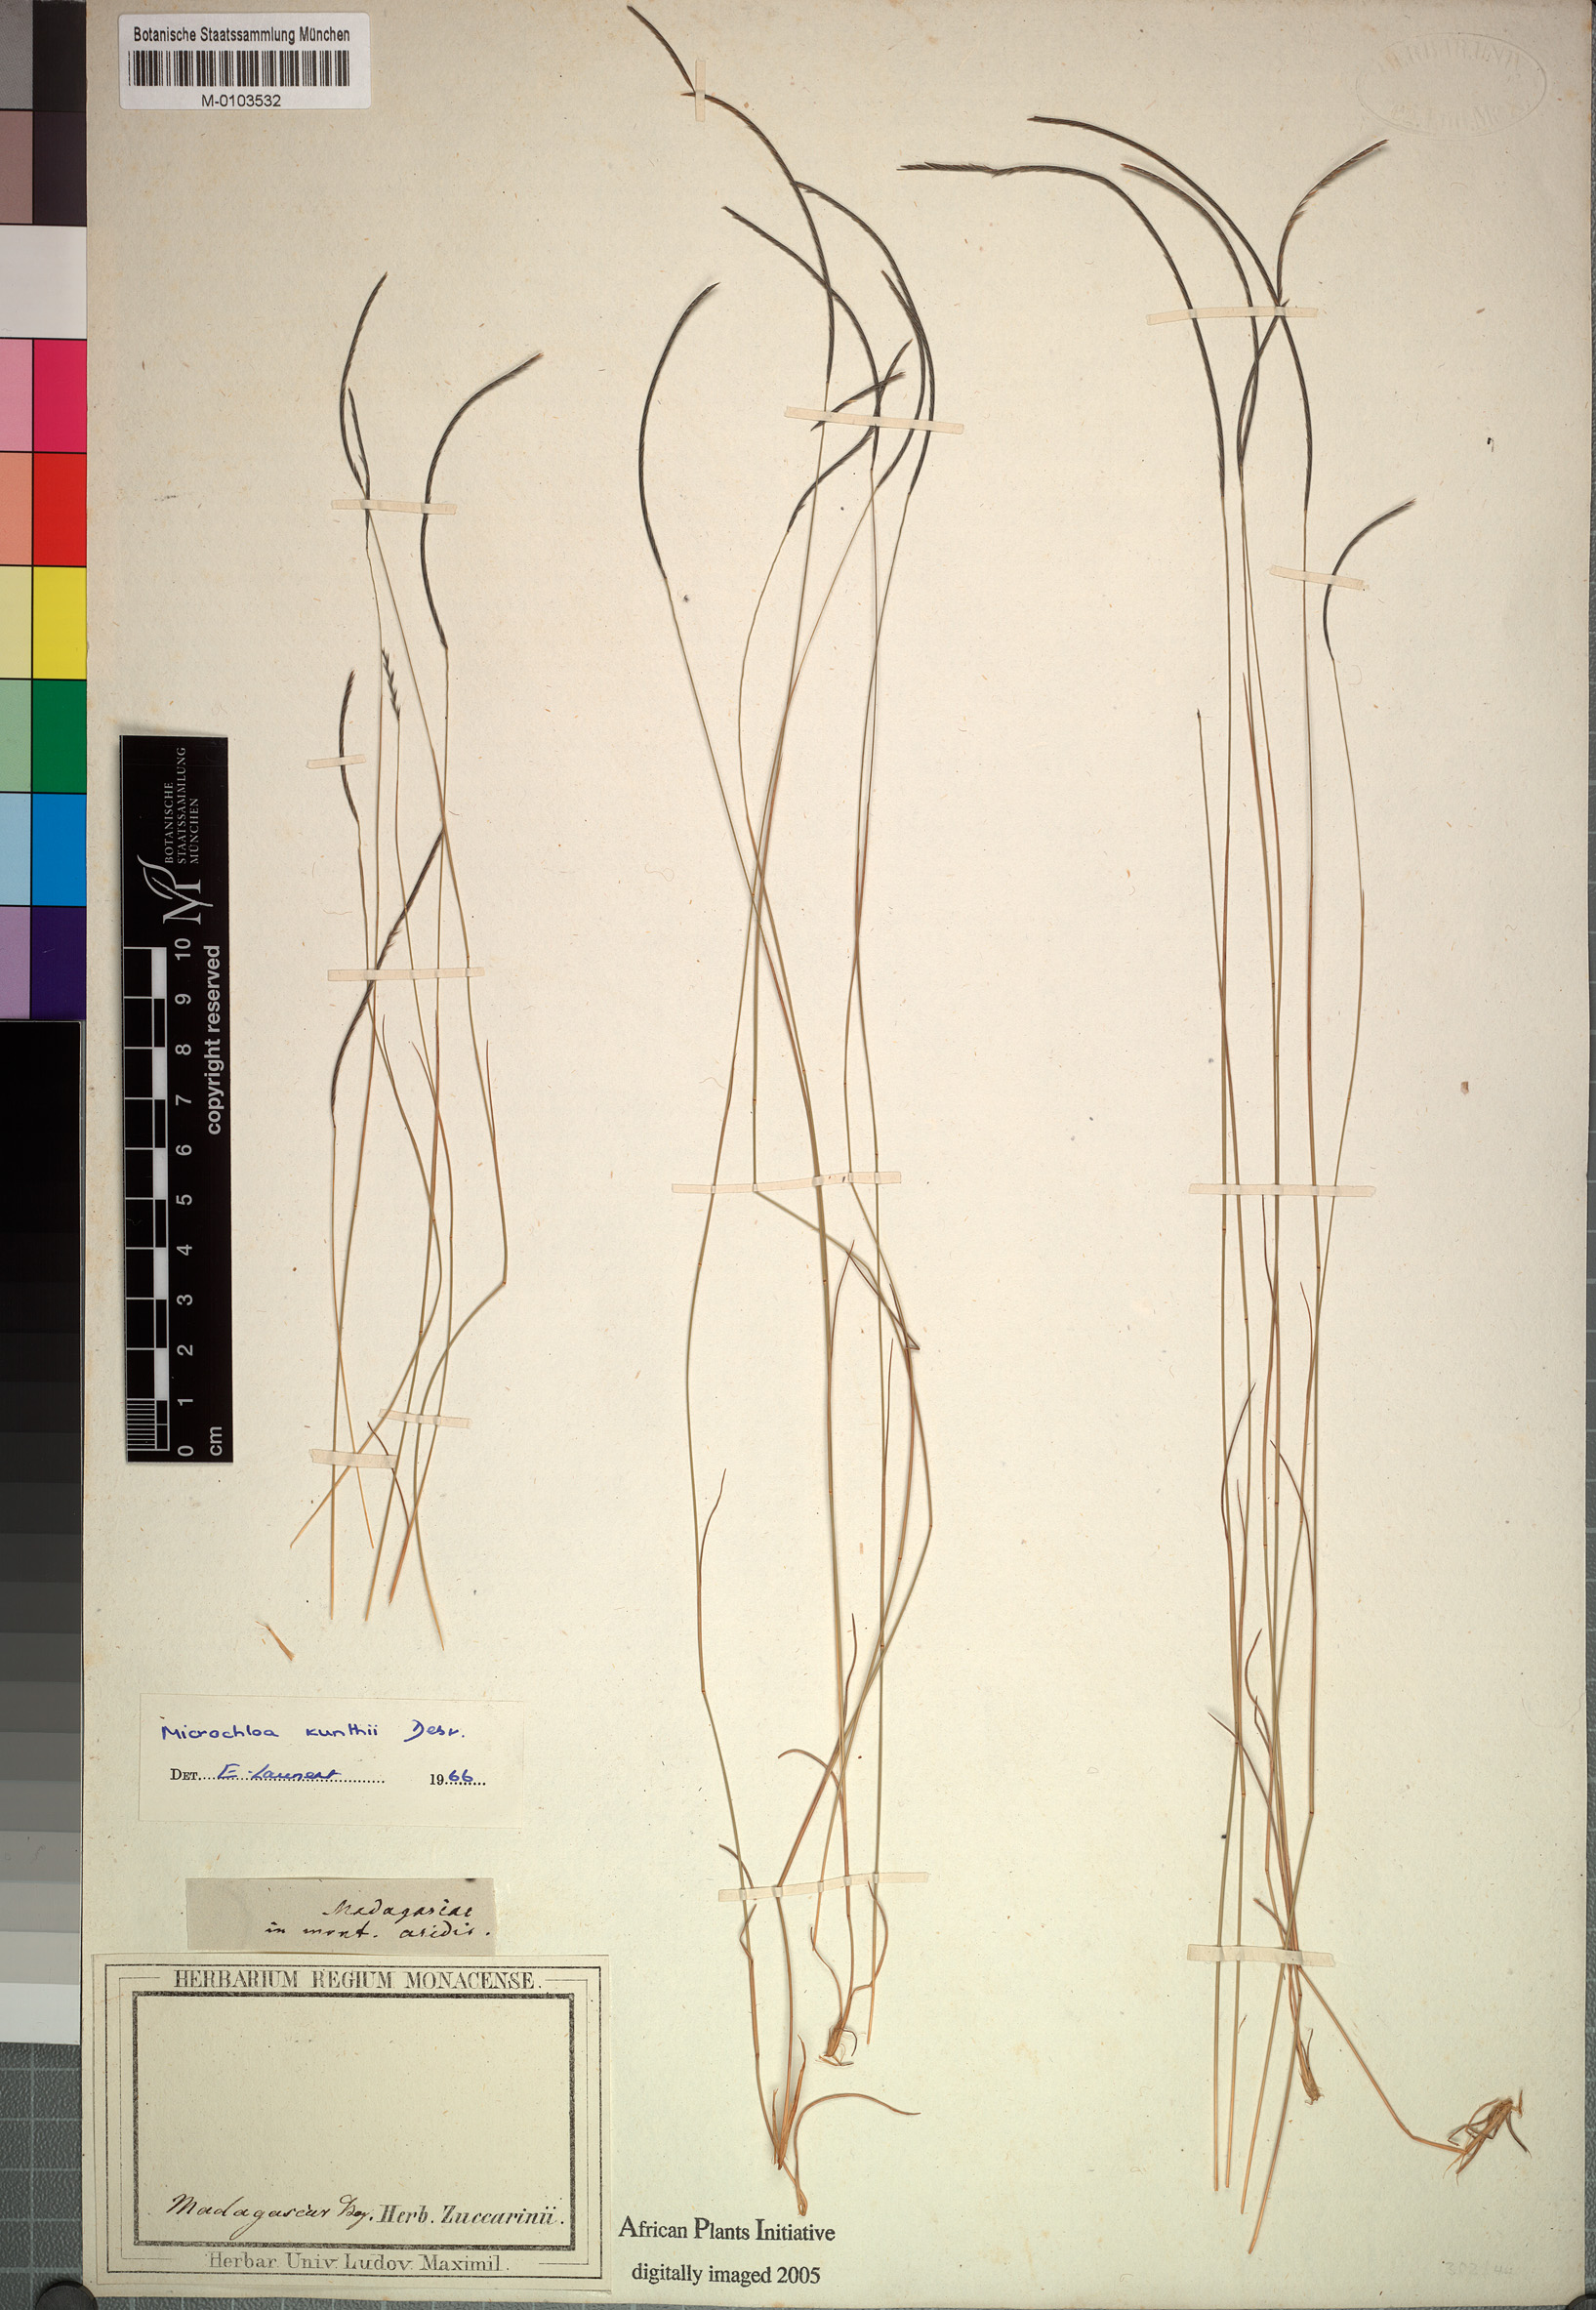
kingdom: Plantae
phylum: Tracheophyta
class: Liliopsida
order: Poales
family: Poaceae
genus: Microchloa
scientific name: Microchloa kunthii
